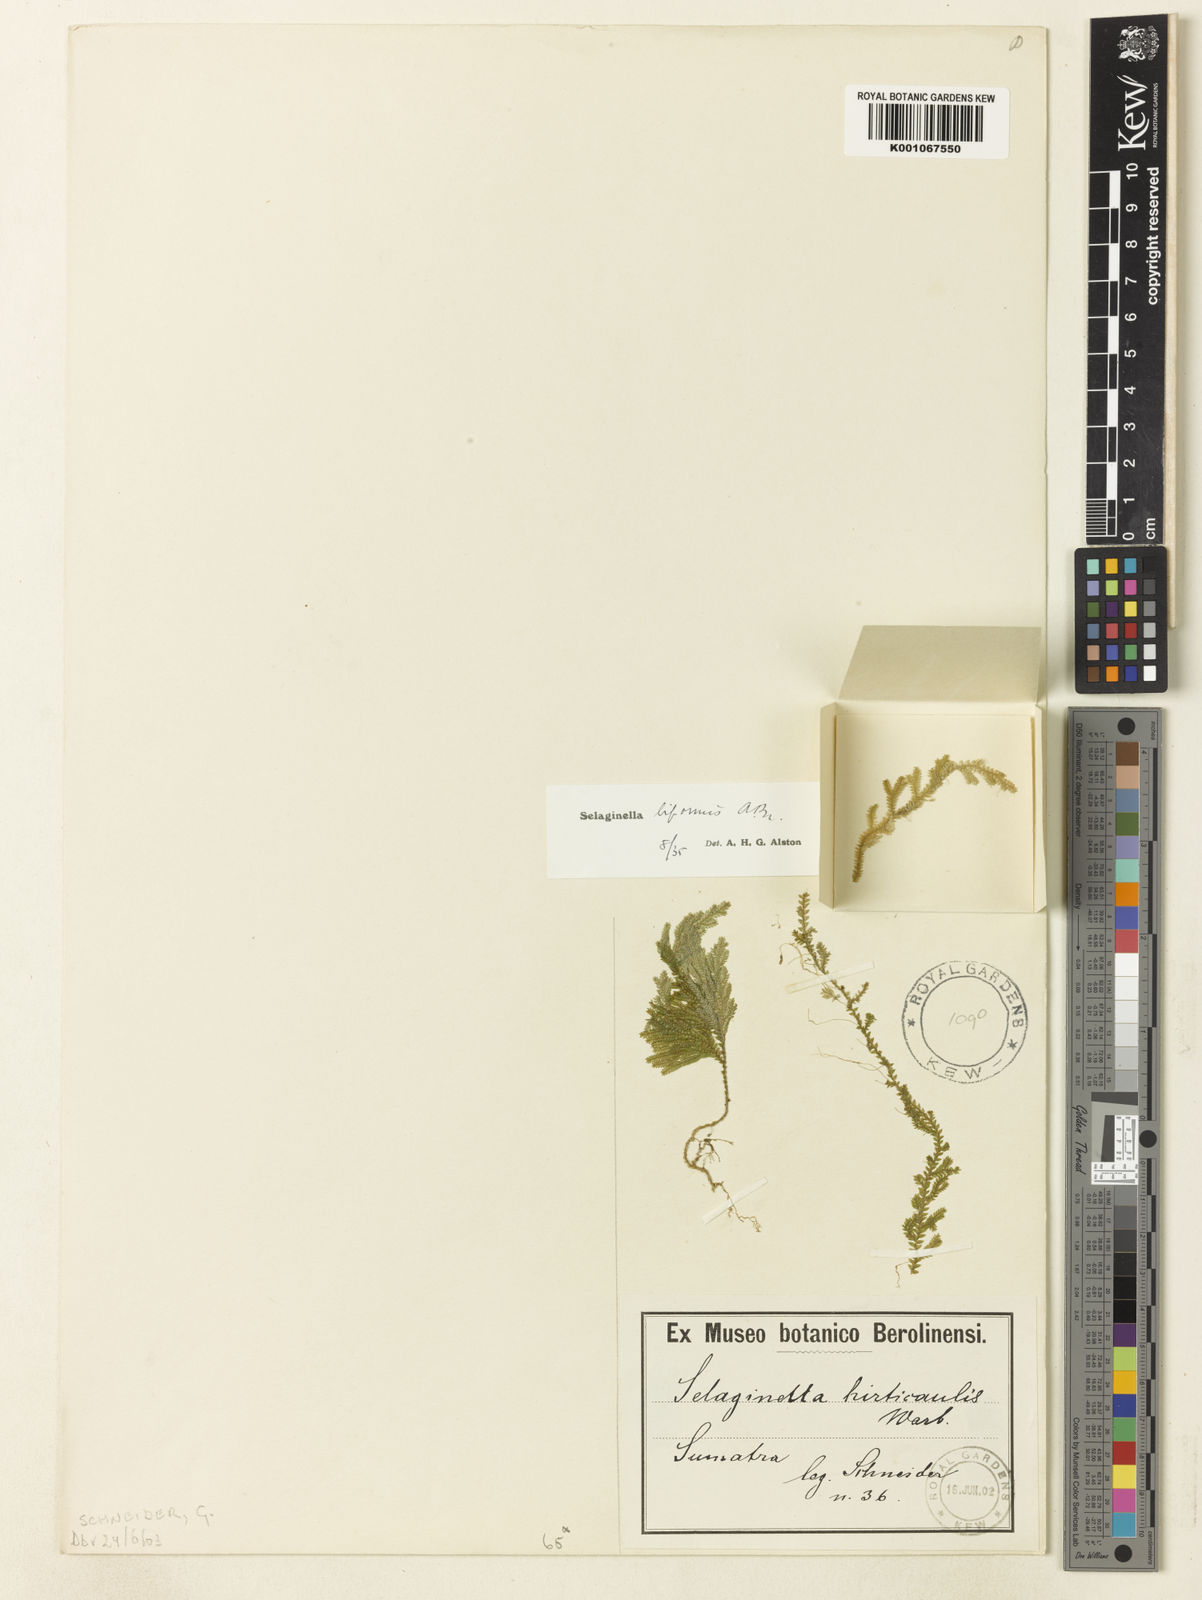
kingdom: Plantae
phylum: Tracheophyta
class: Lycopodiopsida
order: Selaginellales
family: Selaginellaceae
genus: Selaginella
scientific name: Selaginella biformis
